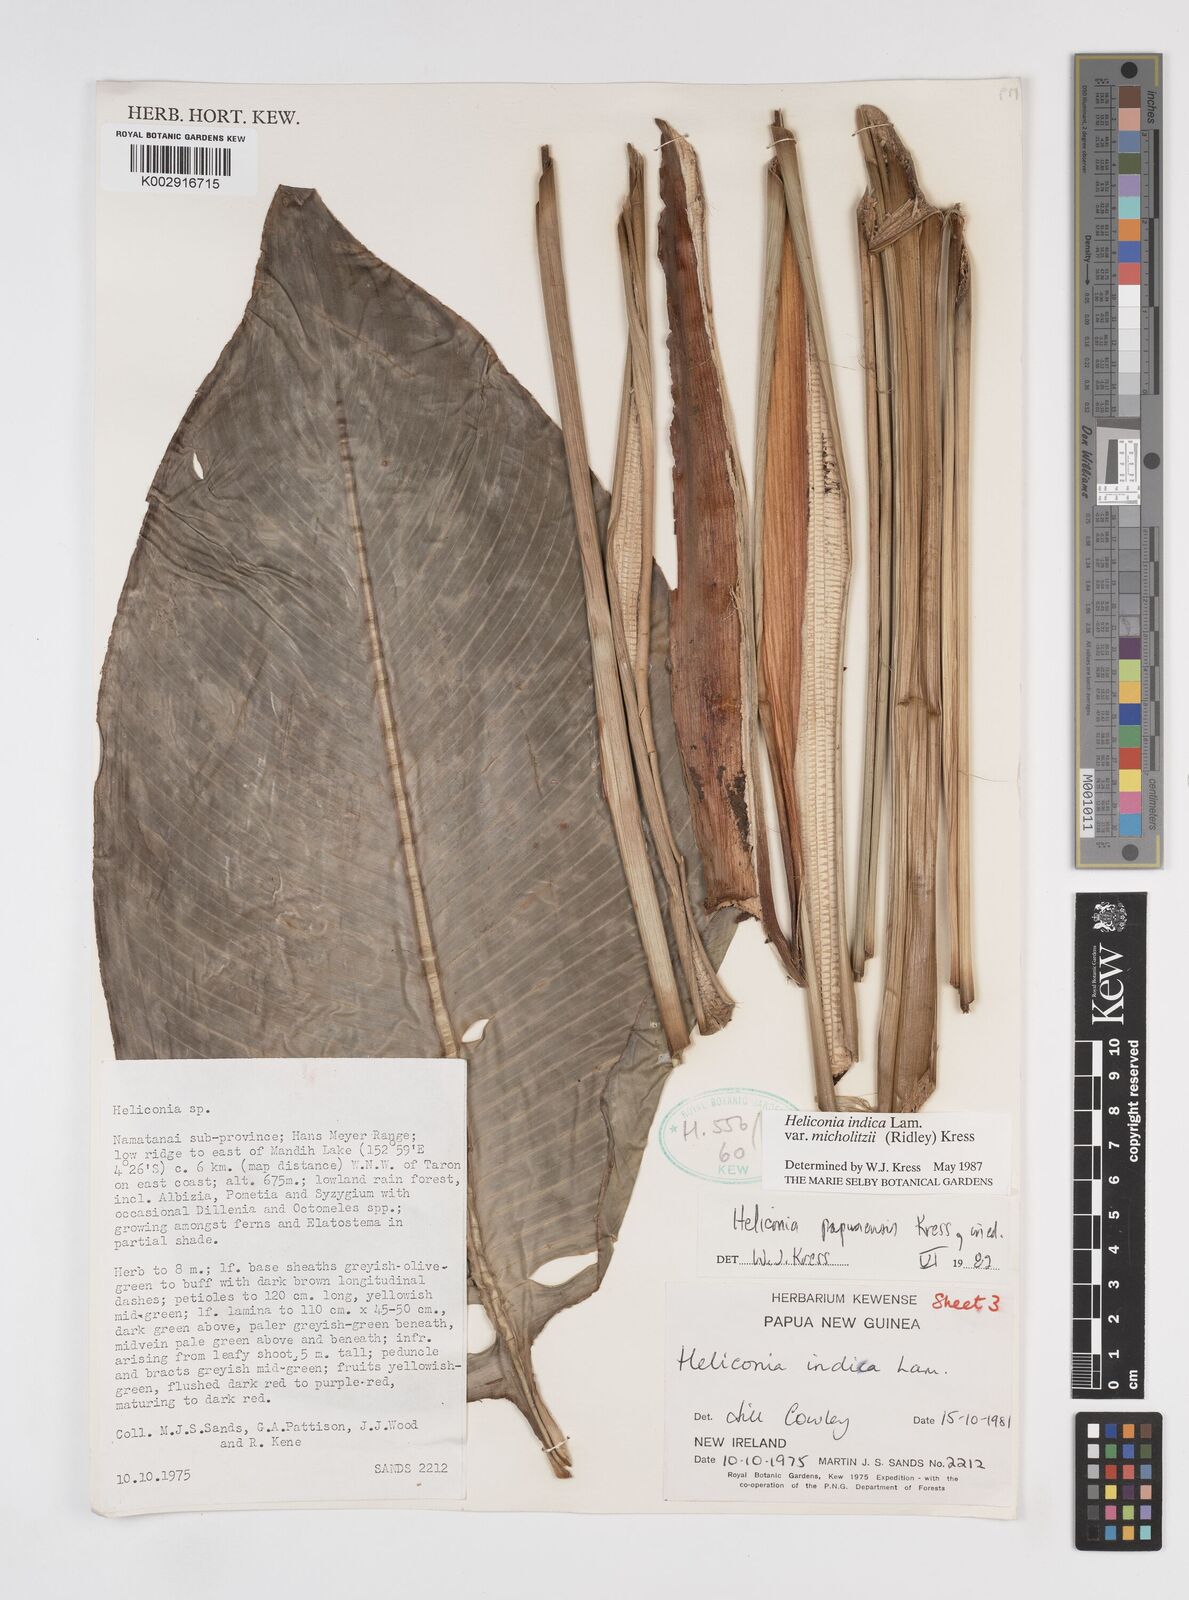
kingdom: Plantae
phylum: Tracheophyta
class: Liliopsida
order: Zingiberales
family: Heliconiaceae
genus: Heliconia
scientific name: Heliconia indica
